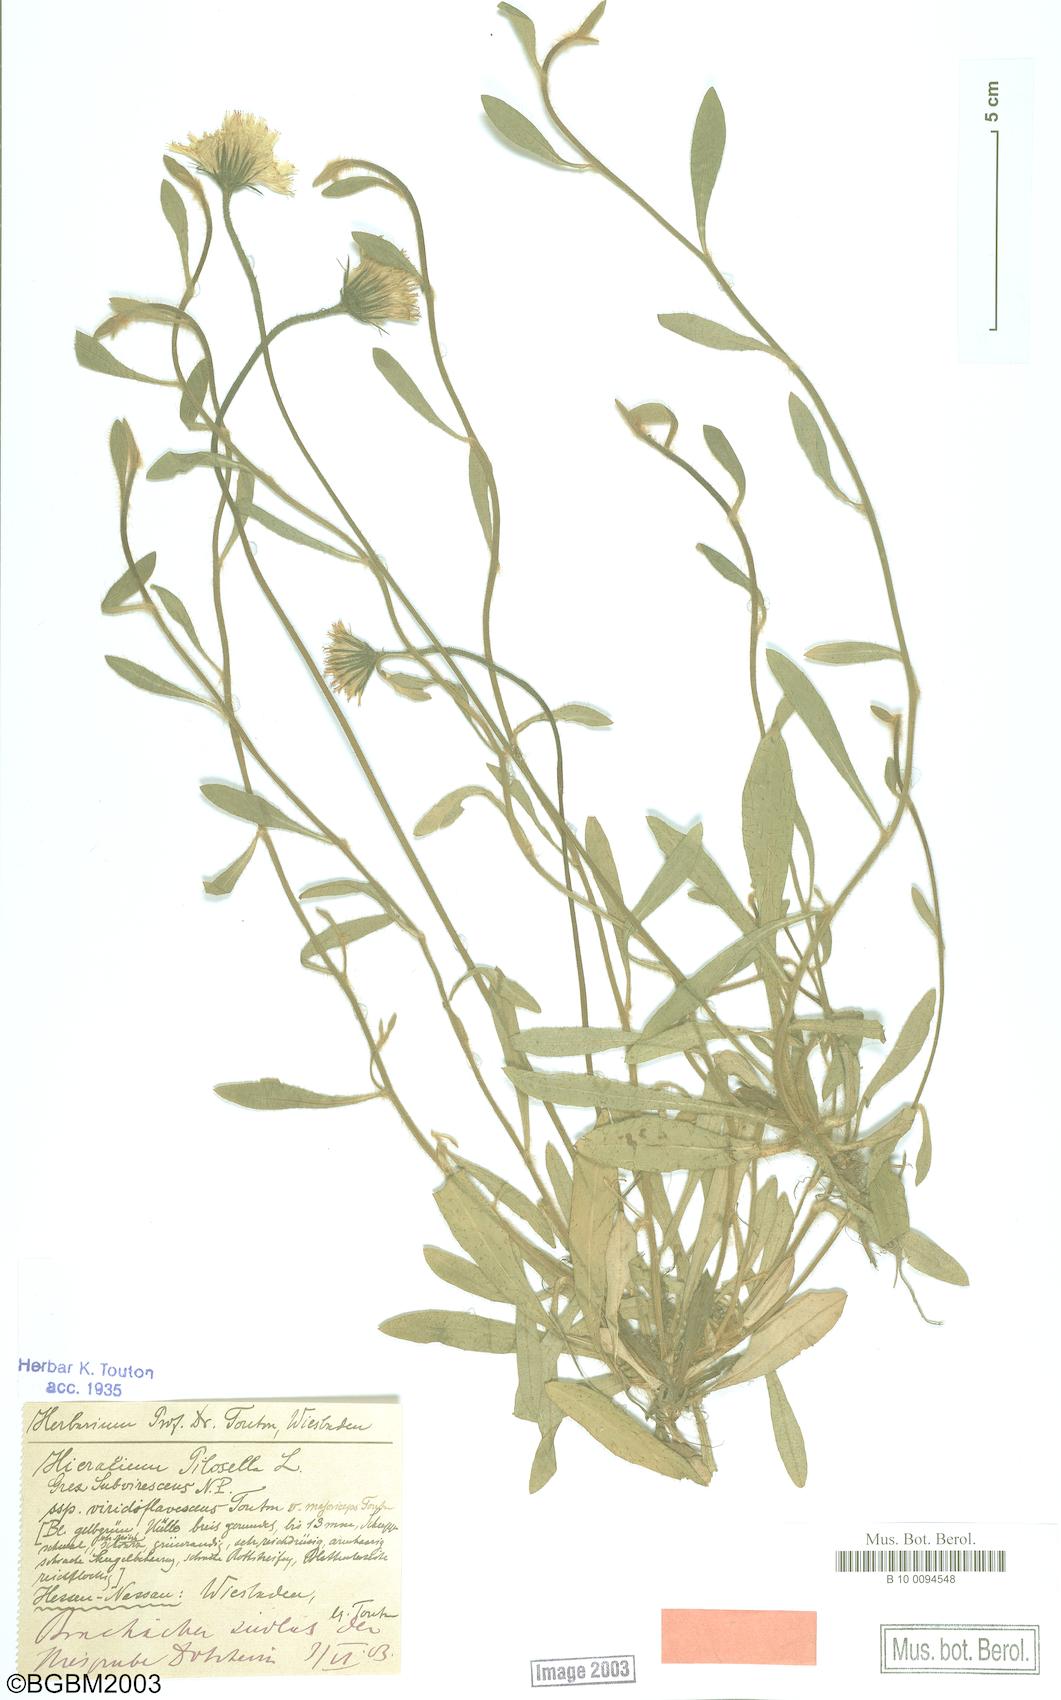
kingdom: Plantae
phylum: Tracheophyta
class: Magnoliopsida
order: Asterales
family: Asteraceae
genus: Pilosella
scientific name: Pilosella officinarum
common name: Mouse-ear hawkweed
